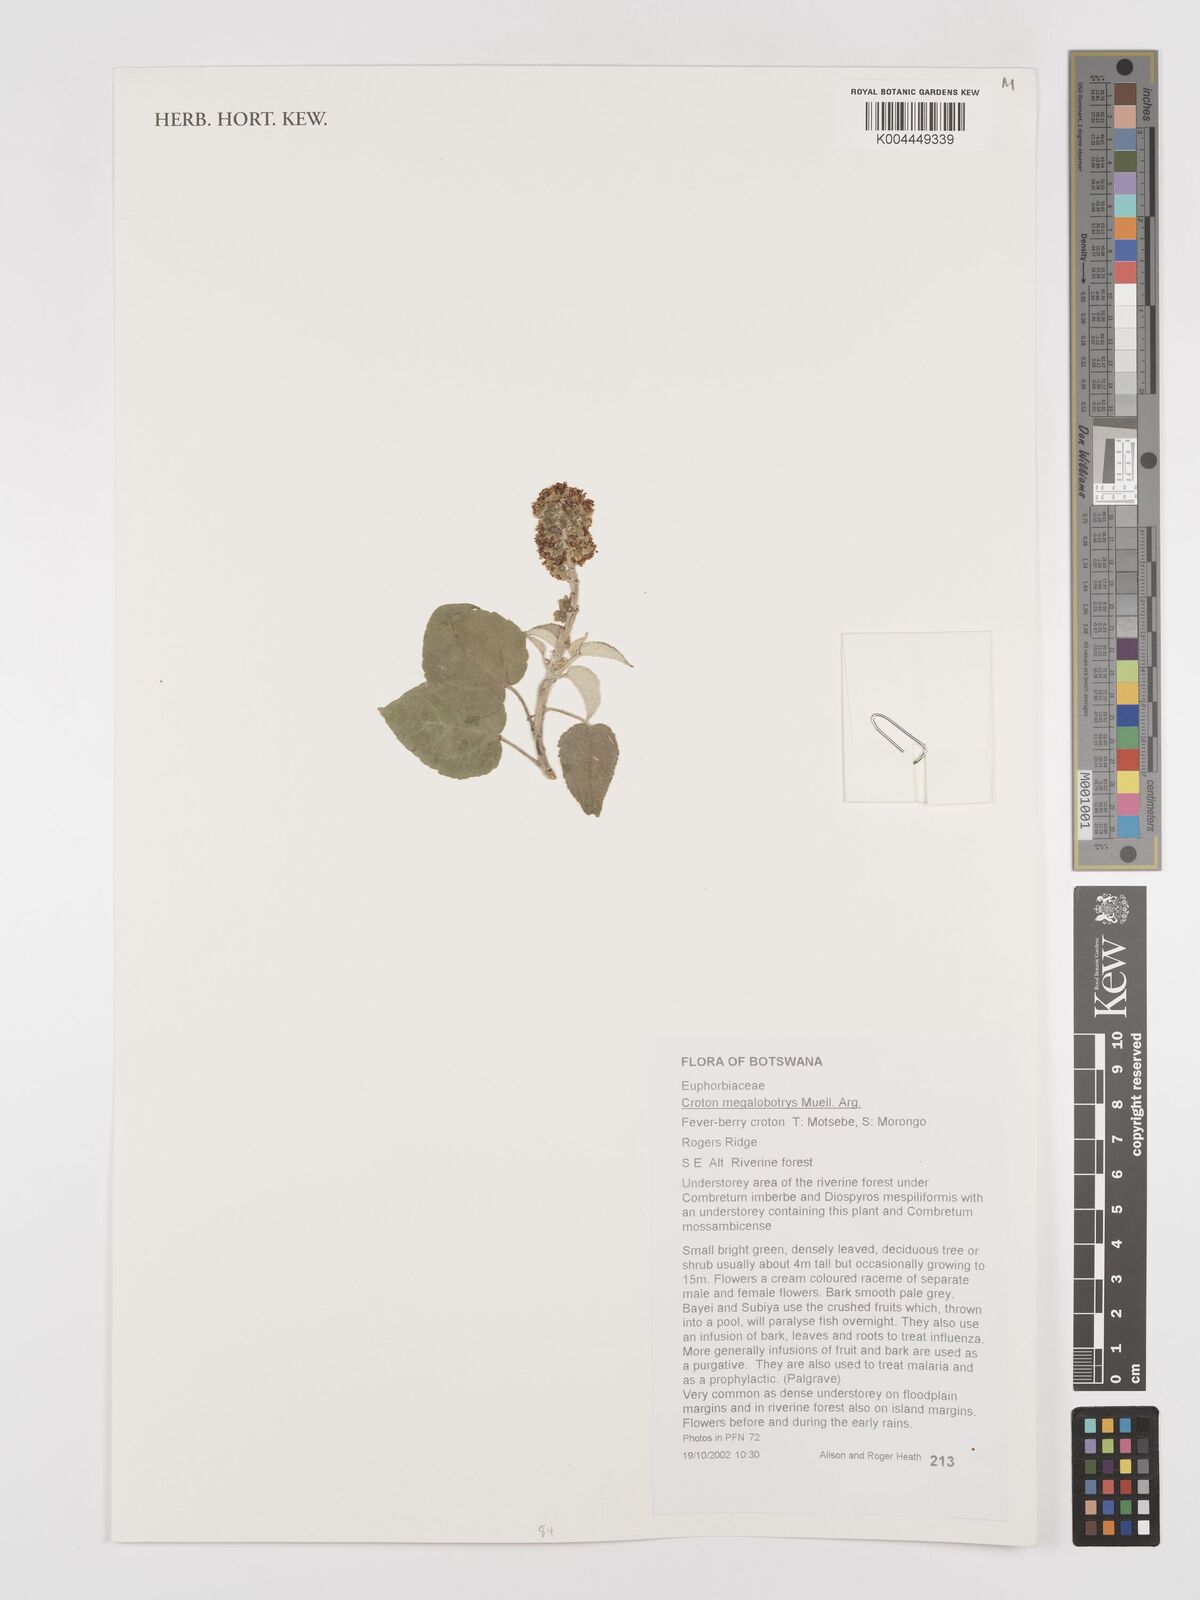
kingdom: Plantae
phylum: Tracheophyta
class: Magnoliopsida
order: Malpighiales
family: Euphorbiaceae
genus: Croton
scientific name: Croton megalobotrys
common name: Large fever berry
